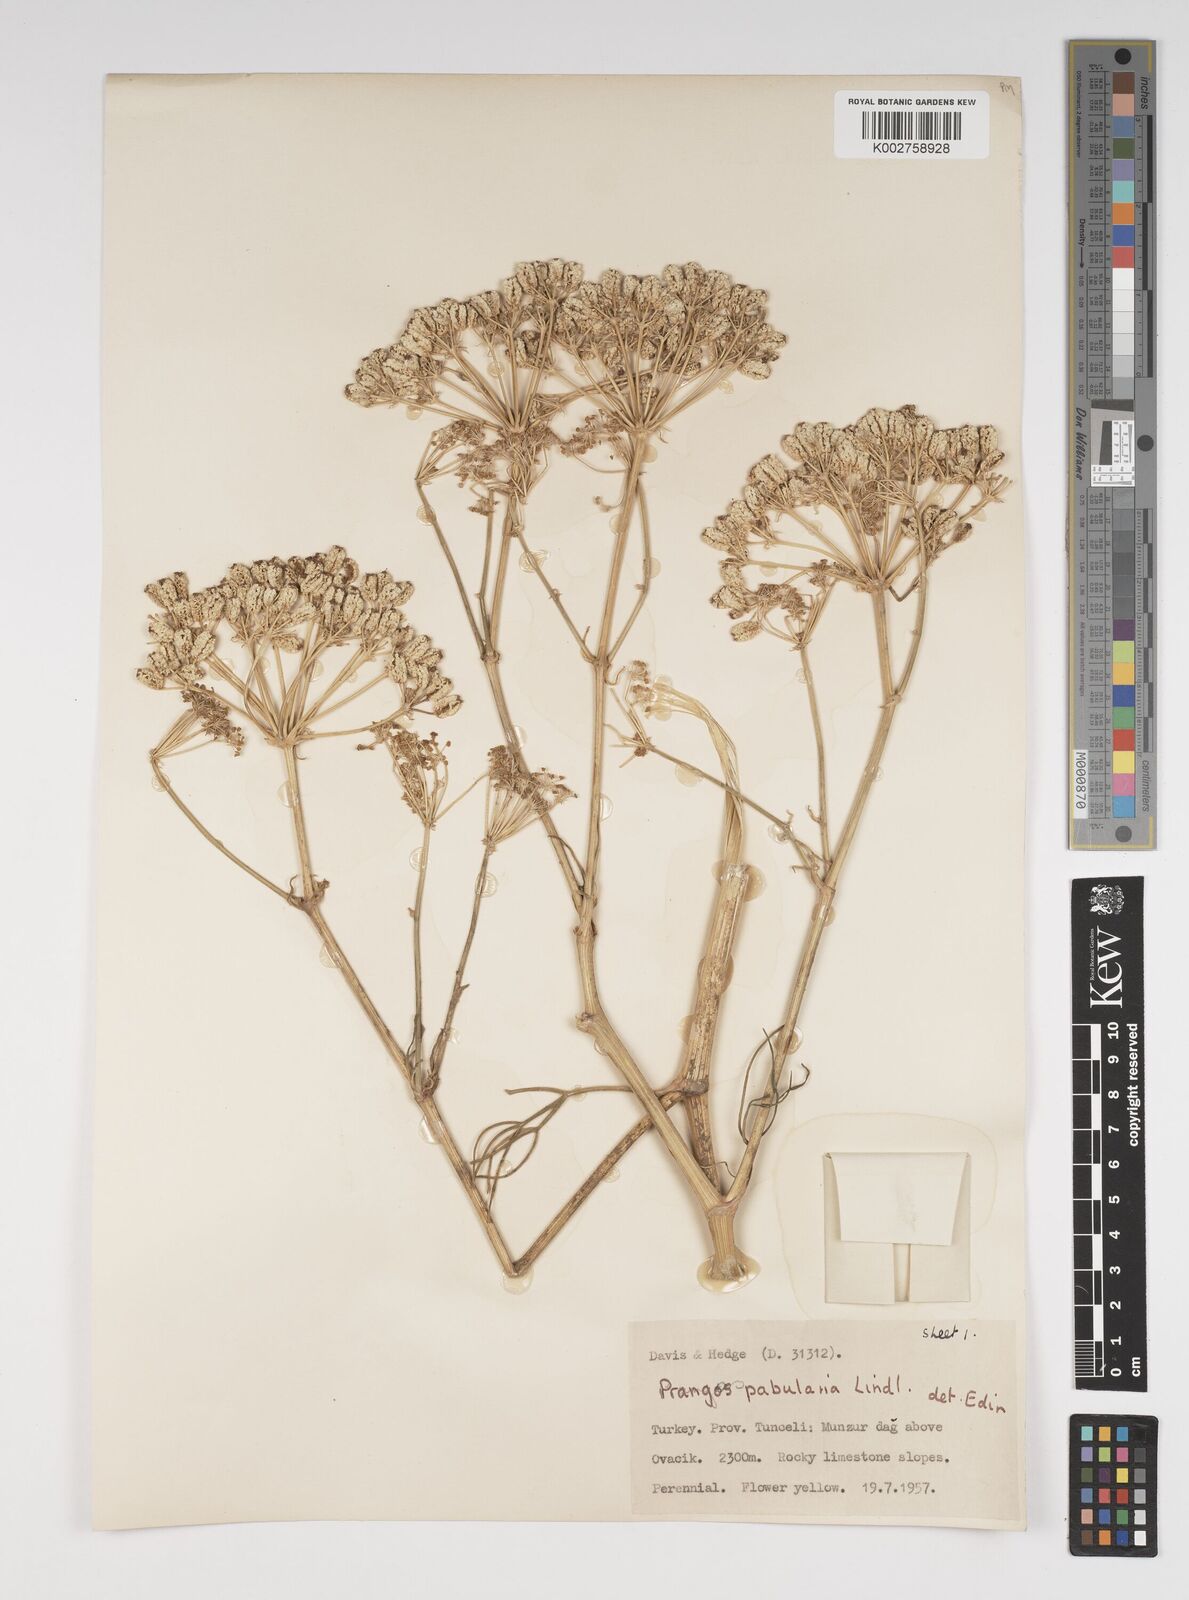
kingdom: Plantae
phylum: Tracheophyta
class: Magnoliopsida
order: Apiales
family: Apiaceae
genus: Prangos
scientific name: Prangos pabularia
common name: Yugan
